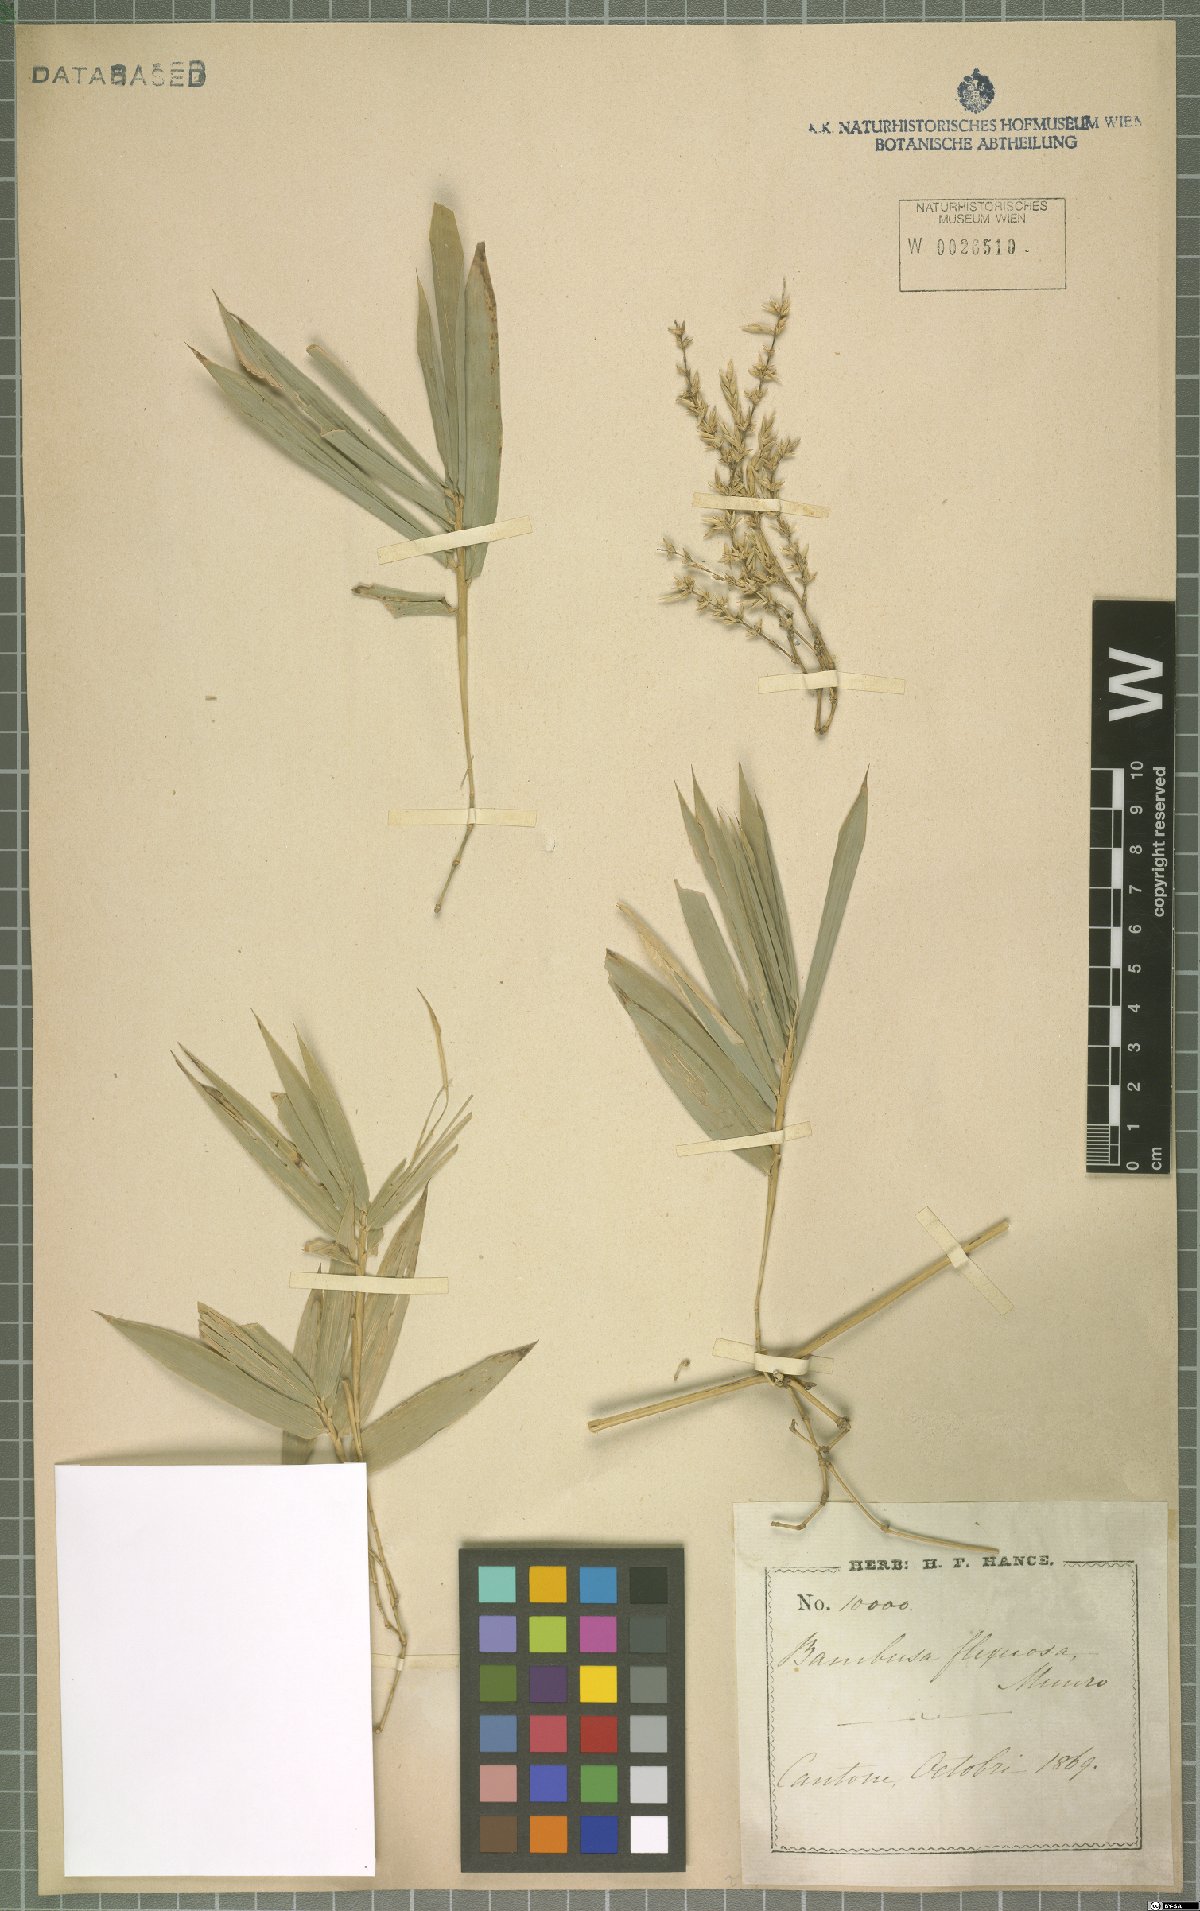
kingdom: Plantae
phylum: Tracheophyta
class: Liliopsida
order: Poales
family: Poaceae
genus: Bambusa
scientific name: Bambusa flexuosa
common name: Lesser thorny bamboo
